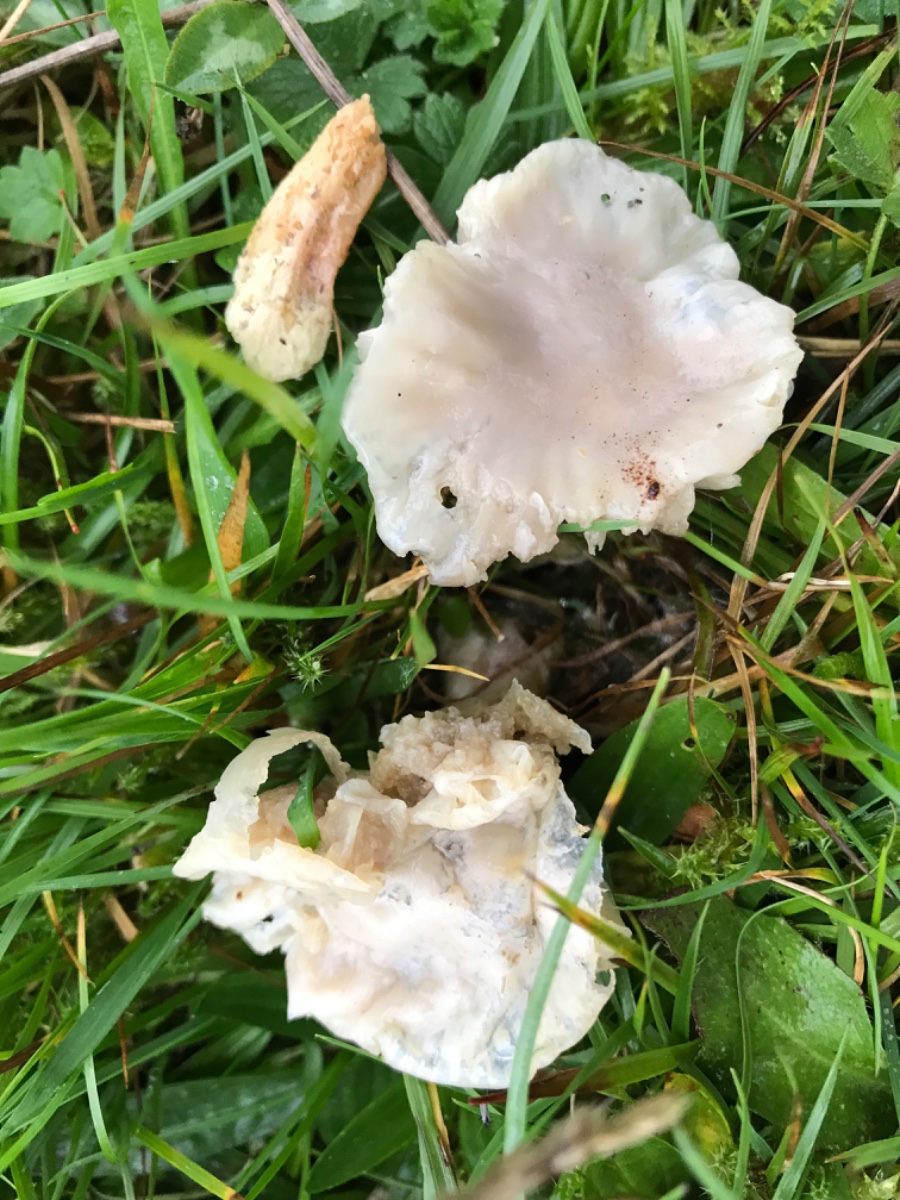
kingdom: Fungi
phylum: Basidiomycota
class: Agaricomycetes
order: Agaricales
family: Hygrophoraceae
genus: Cuphophyllus
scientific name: Cuphophyllus flavipes
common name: gulfodet vokshat
